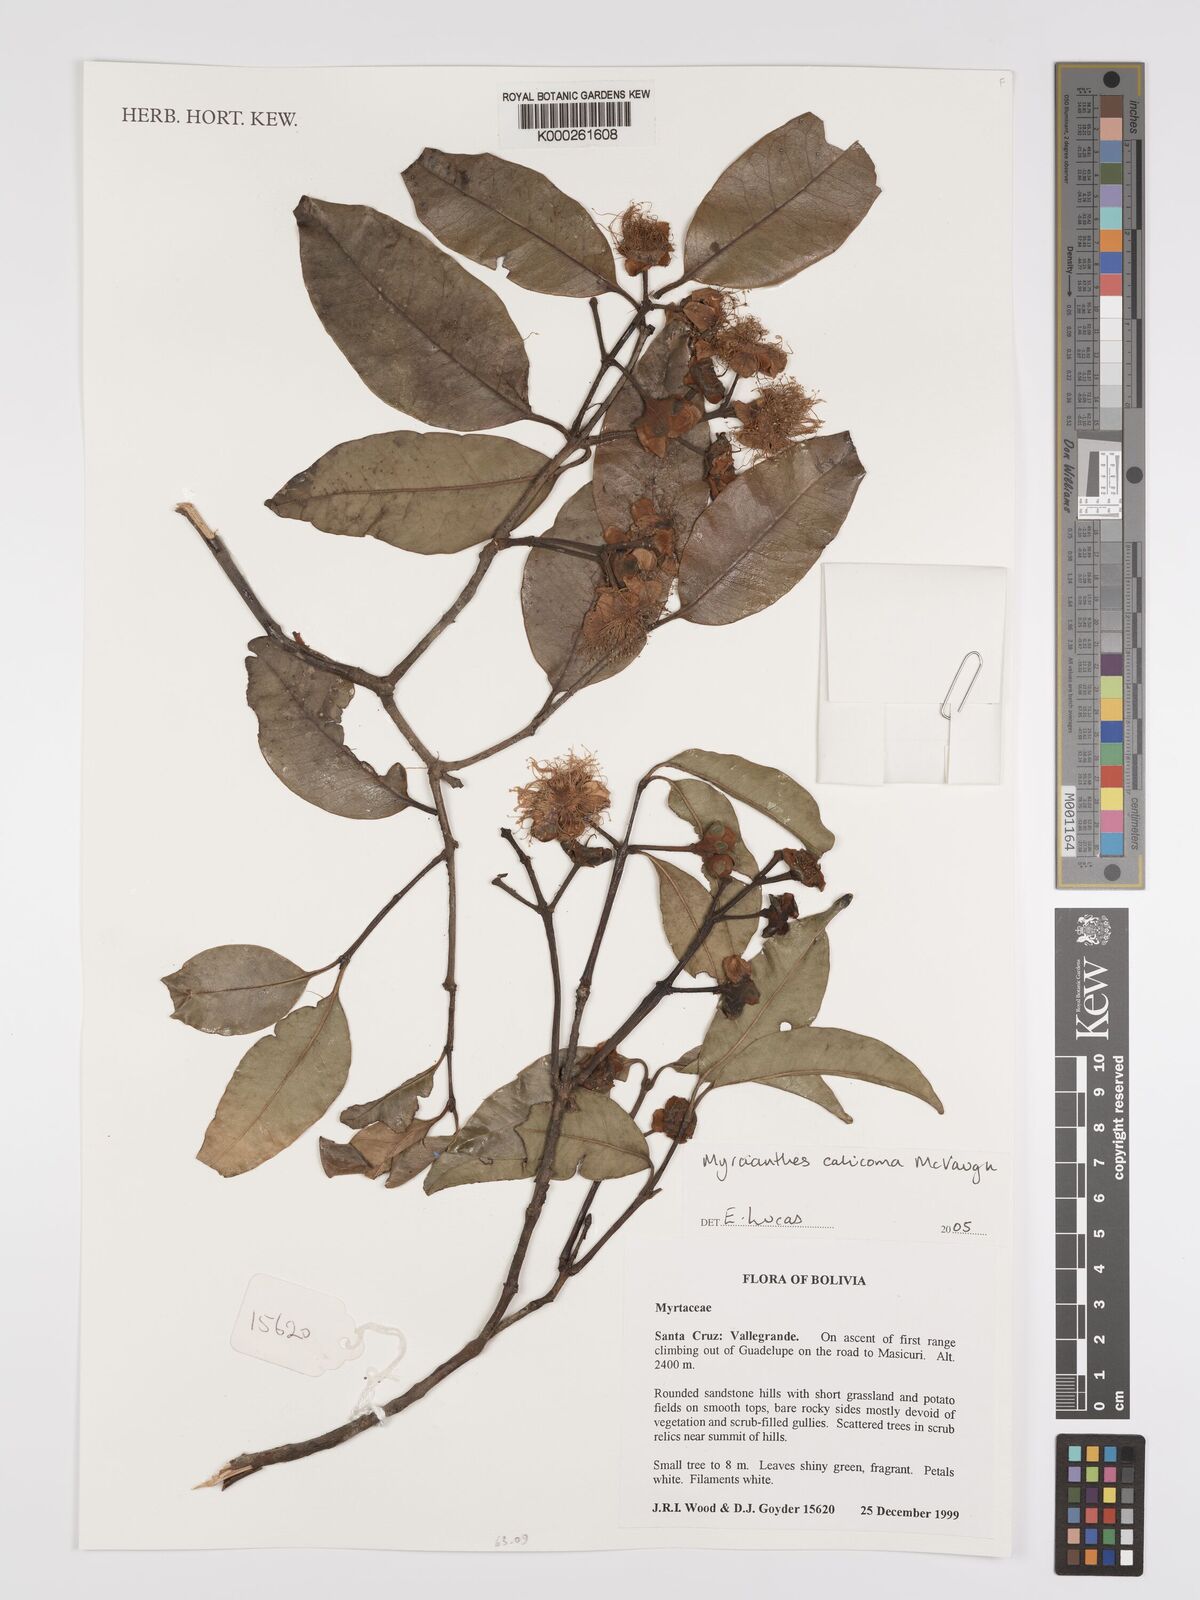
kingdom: Plantae
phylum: Tracheophyta
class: Magnoliopsida
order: Myrtales
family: Myrtaceae
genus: Myrcianthes
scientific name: Myrcianthes callicoma
